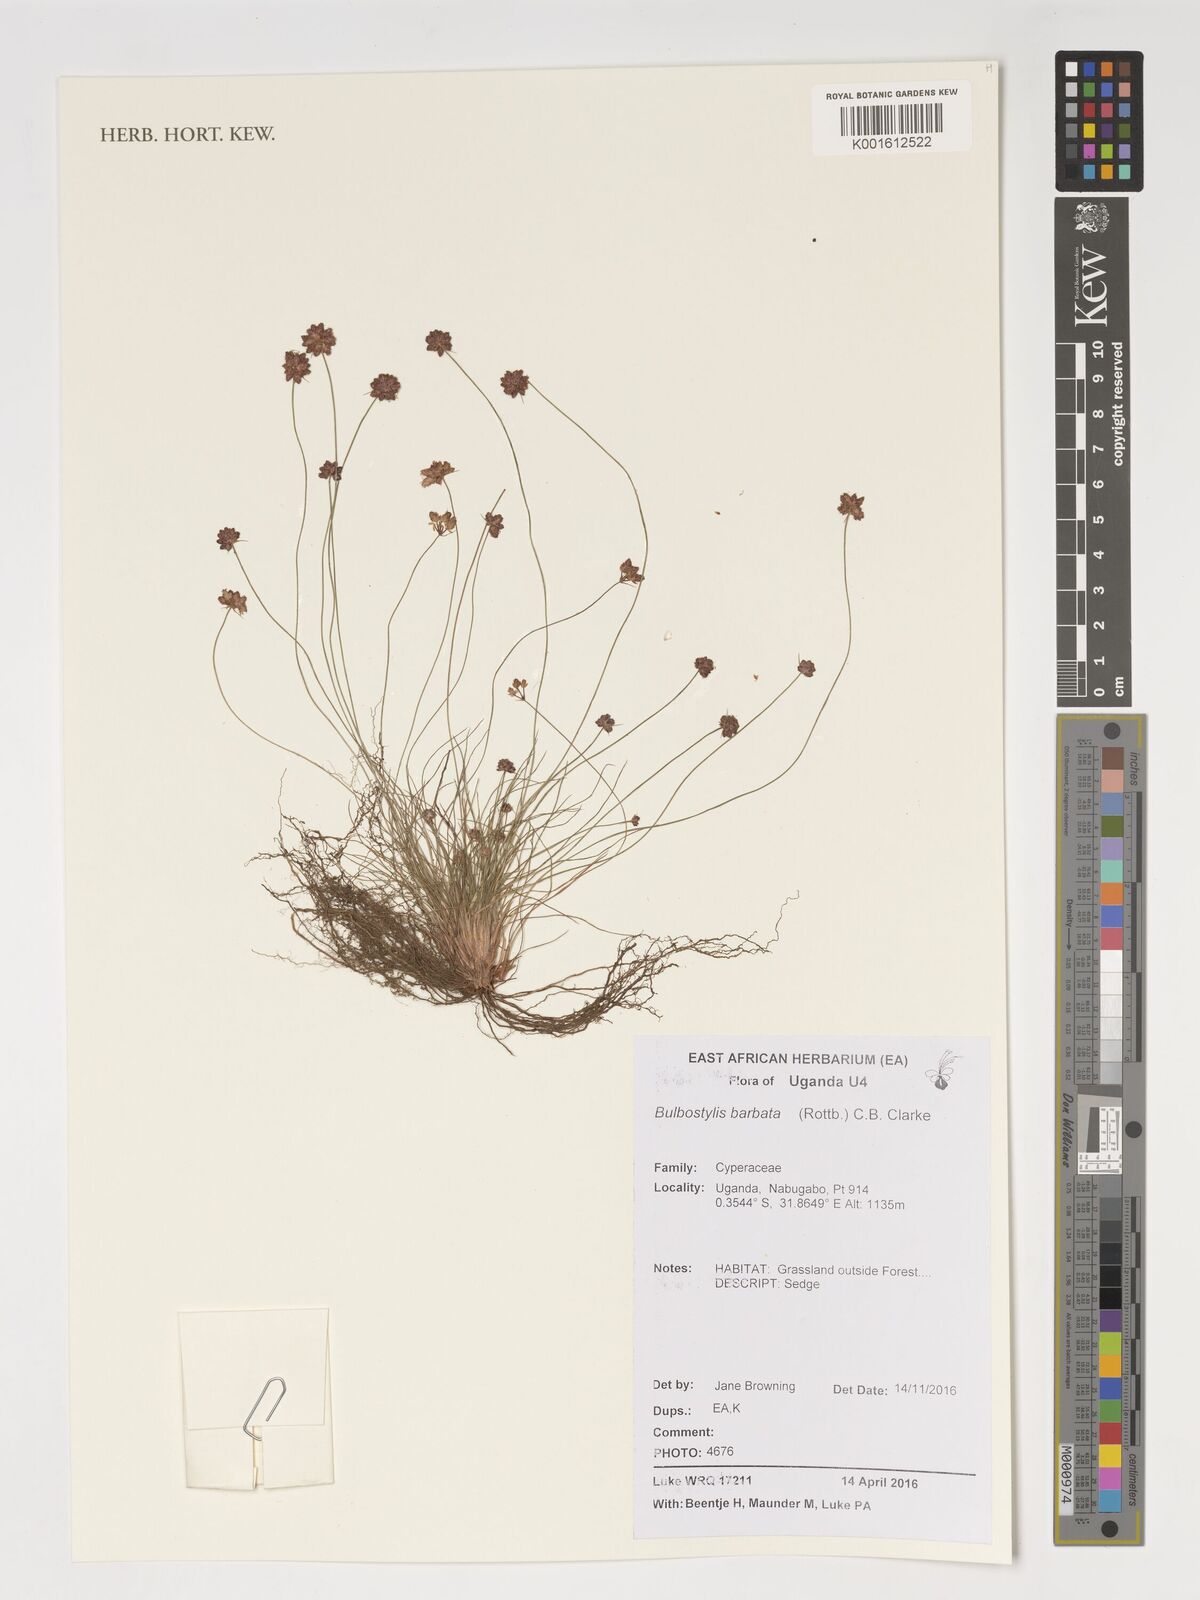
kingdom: Plantae
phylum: Tracheophyta
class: Liliopsida
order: Poales
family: Cyperaceae
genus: Bulbostylis
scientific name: Bulbostylis barbata
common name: Watergrass
